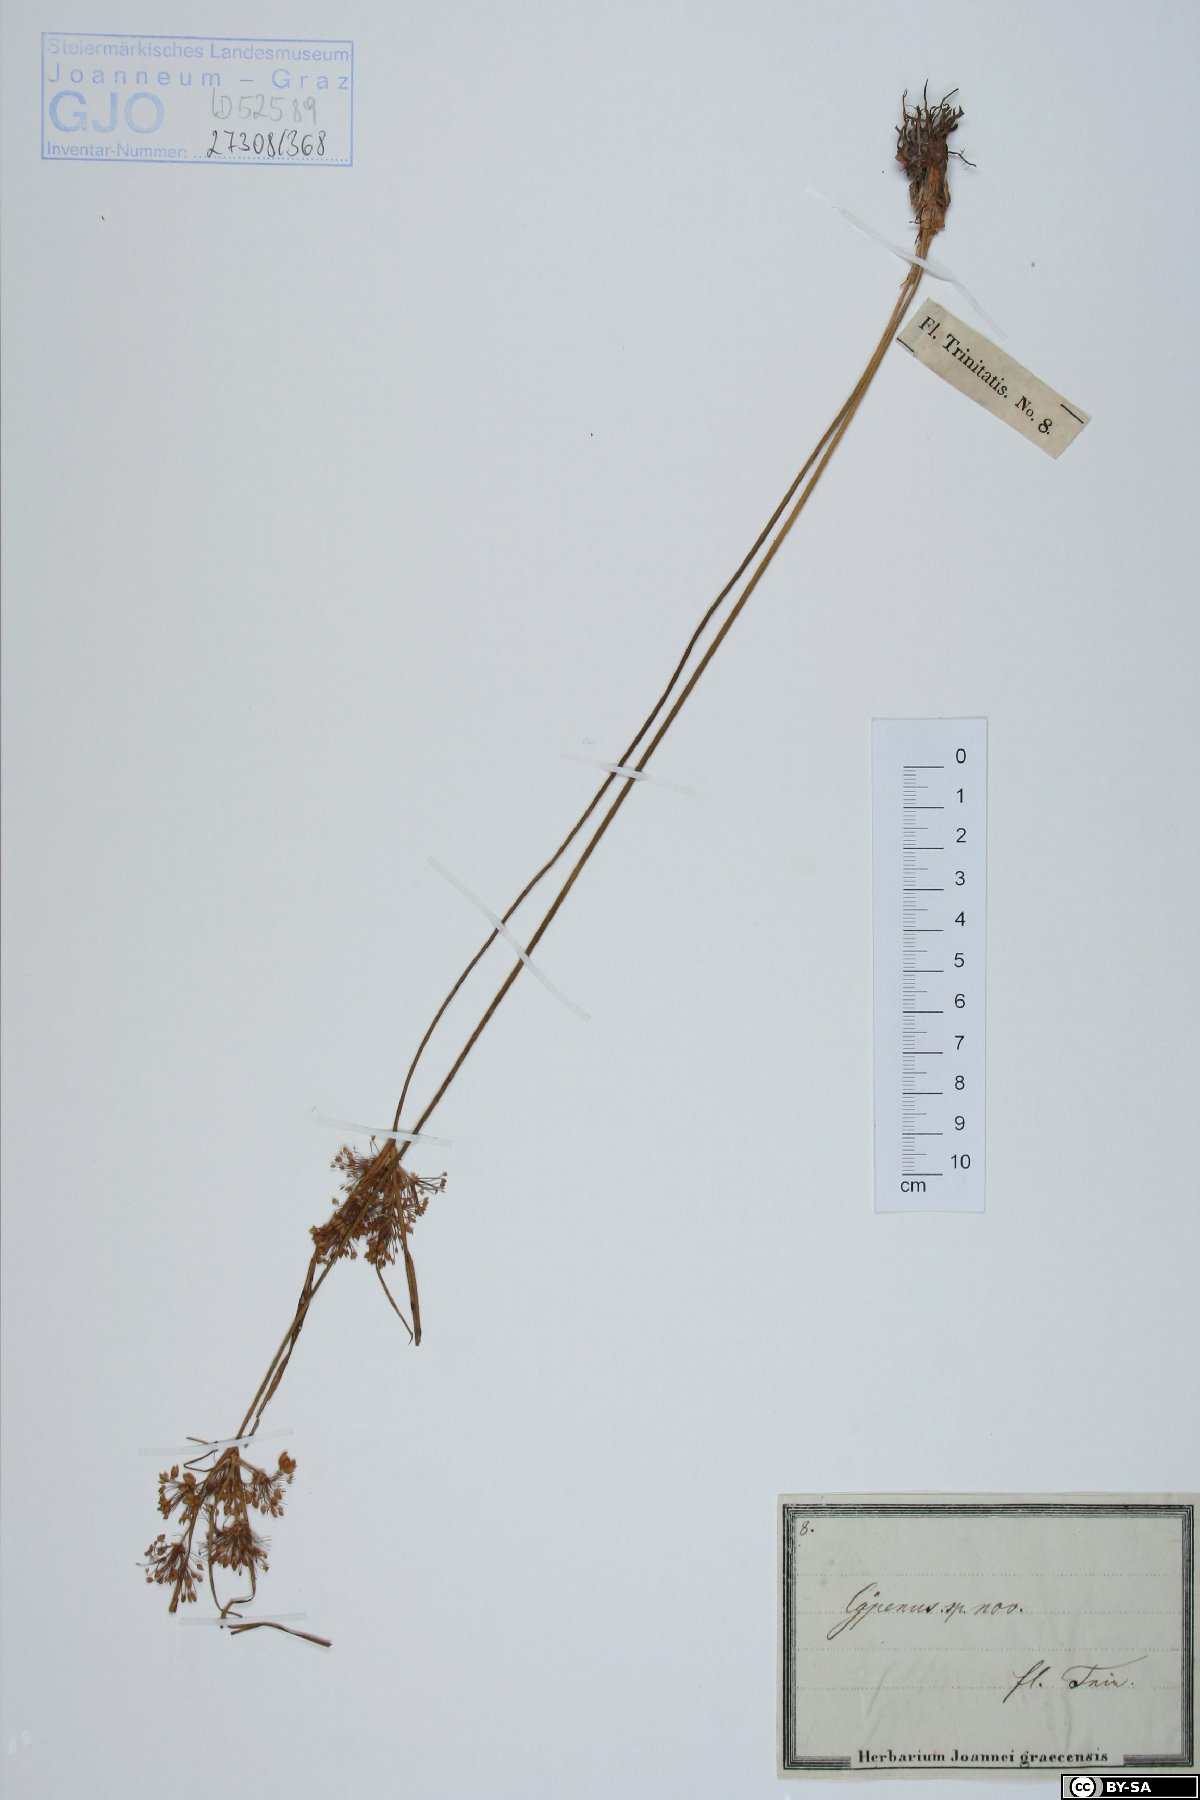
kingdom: Plantae
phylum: Tracheophyta
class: Liliopsida
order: Poales
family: Cyperaceae
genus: Cyperus
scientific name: Cyperus
